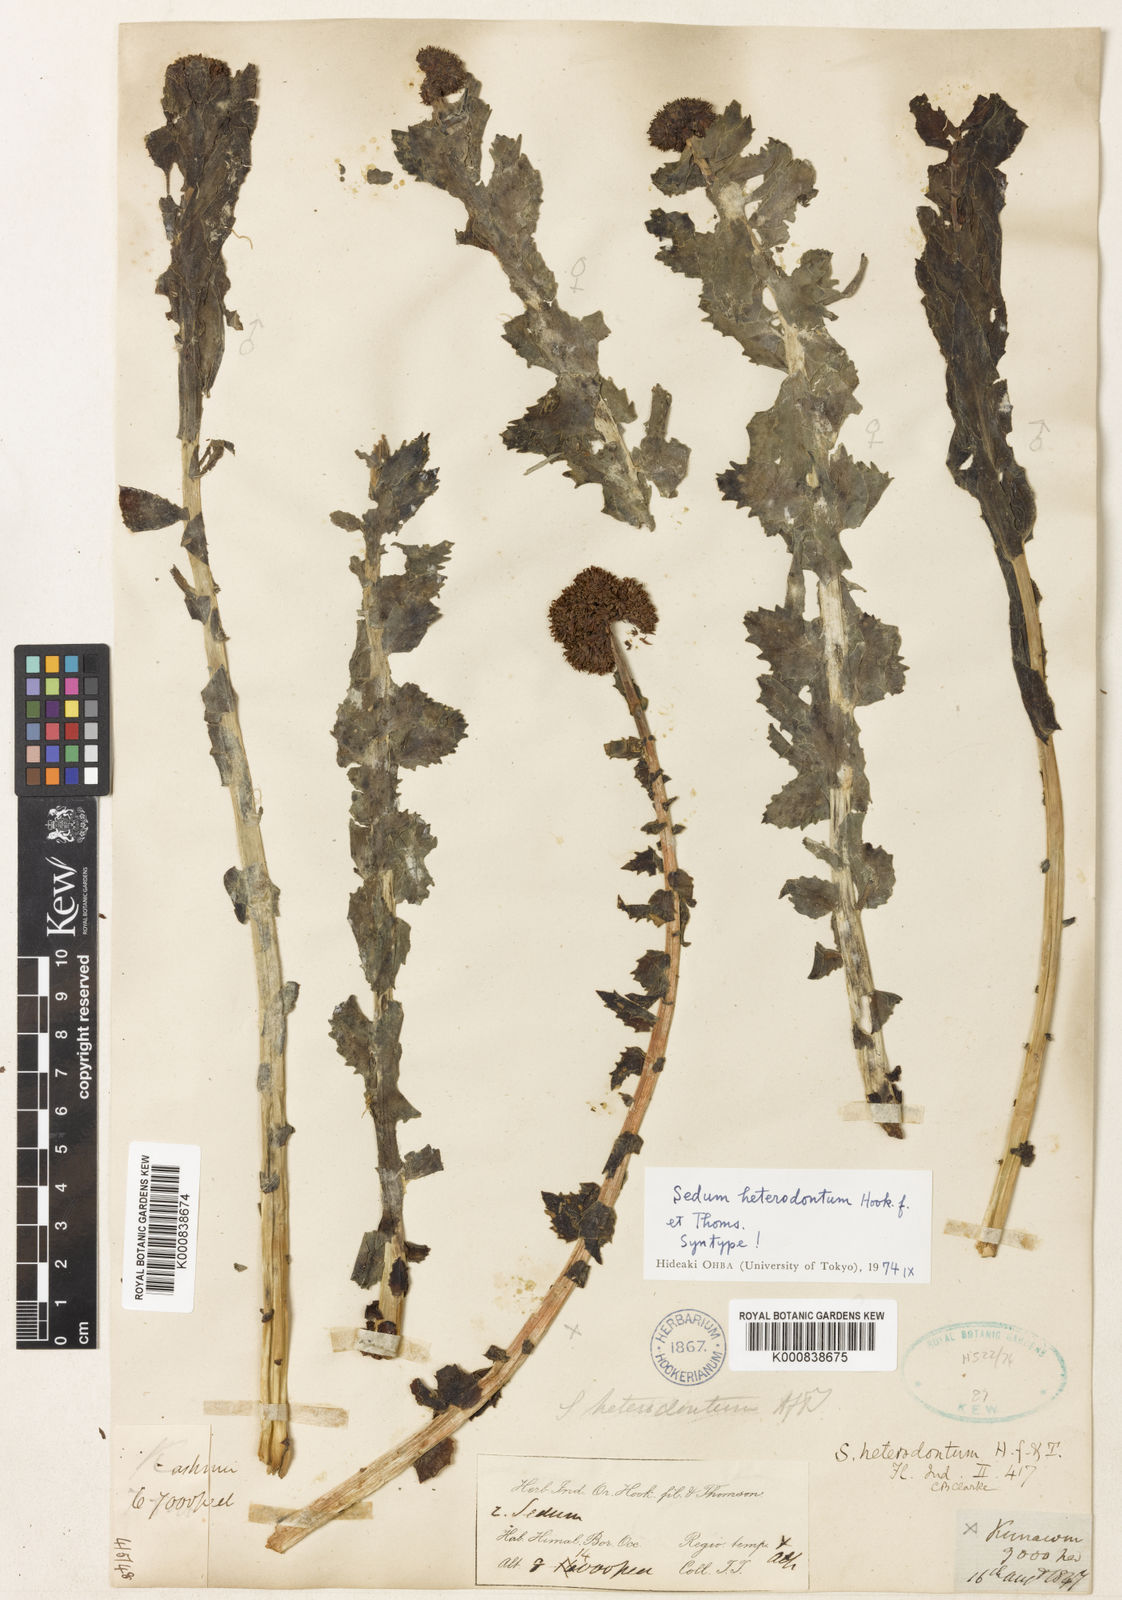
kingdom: Plantae
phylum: Tracheophyta
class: Magnoliopsida
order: Saxifragales
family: Crassulaceae
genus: Rhodiola
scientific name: Rhodiola rosea
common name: Roseroot
